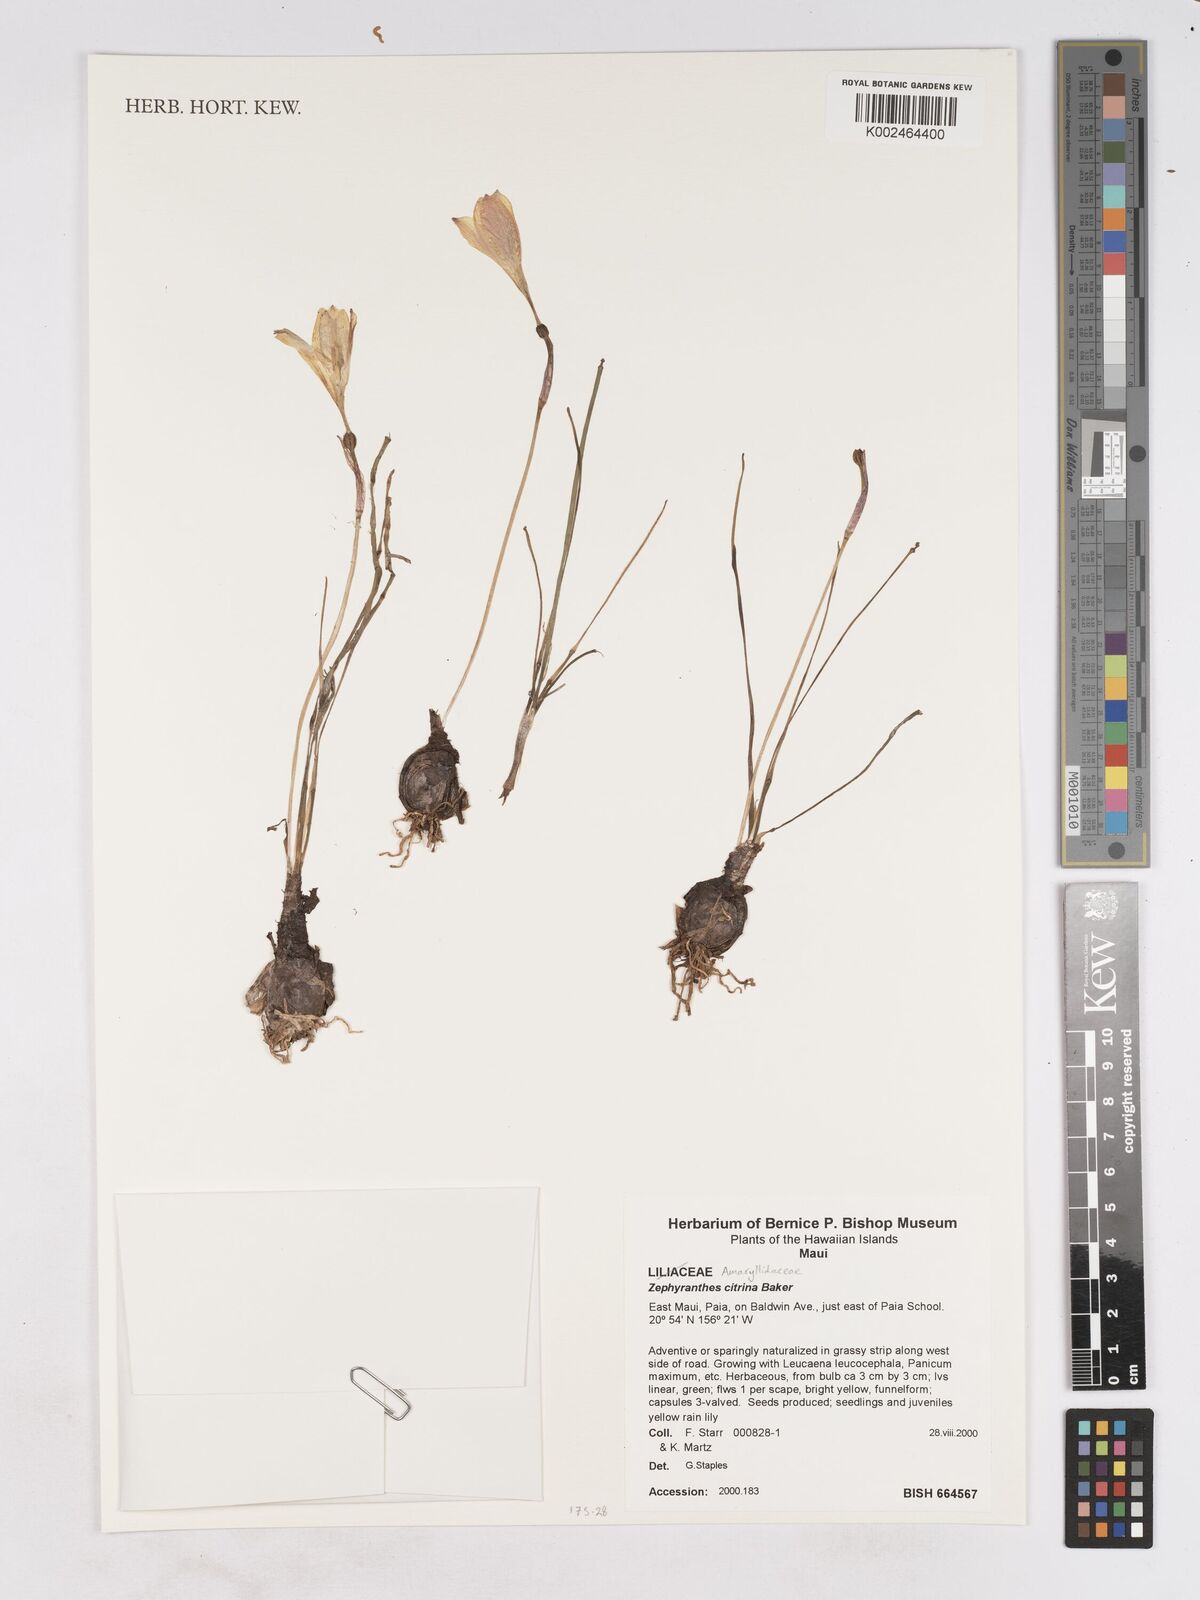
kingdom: Plantae
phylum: Tracheophyta
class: Liliopsida
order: Asparagales
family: Amaryllidaceae
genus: Zephyranthes
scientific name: Zephyranthes citrina
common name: Citron zephyrlily
